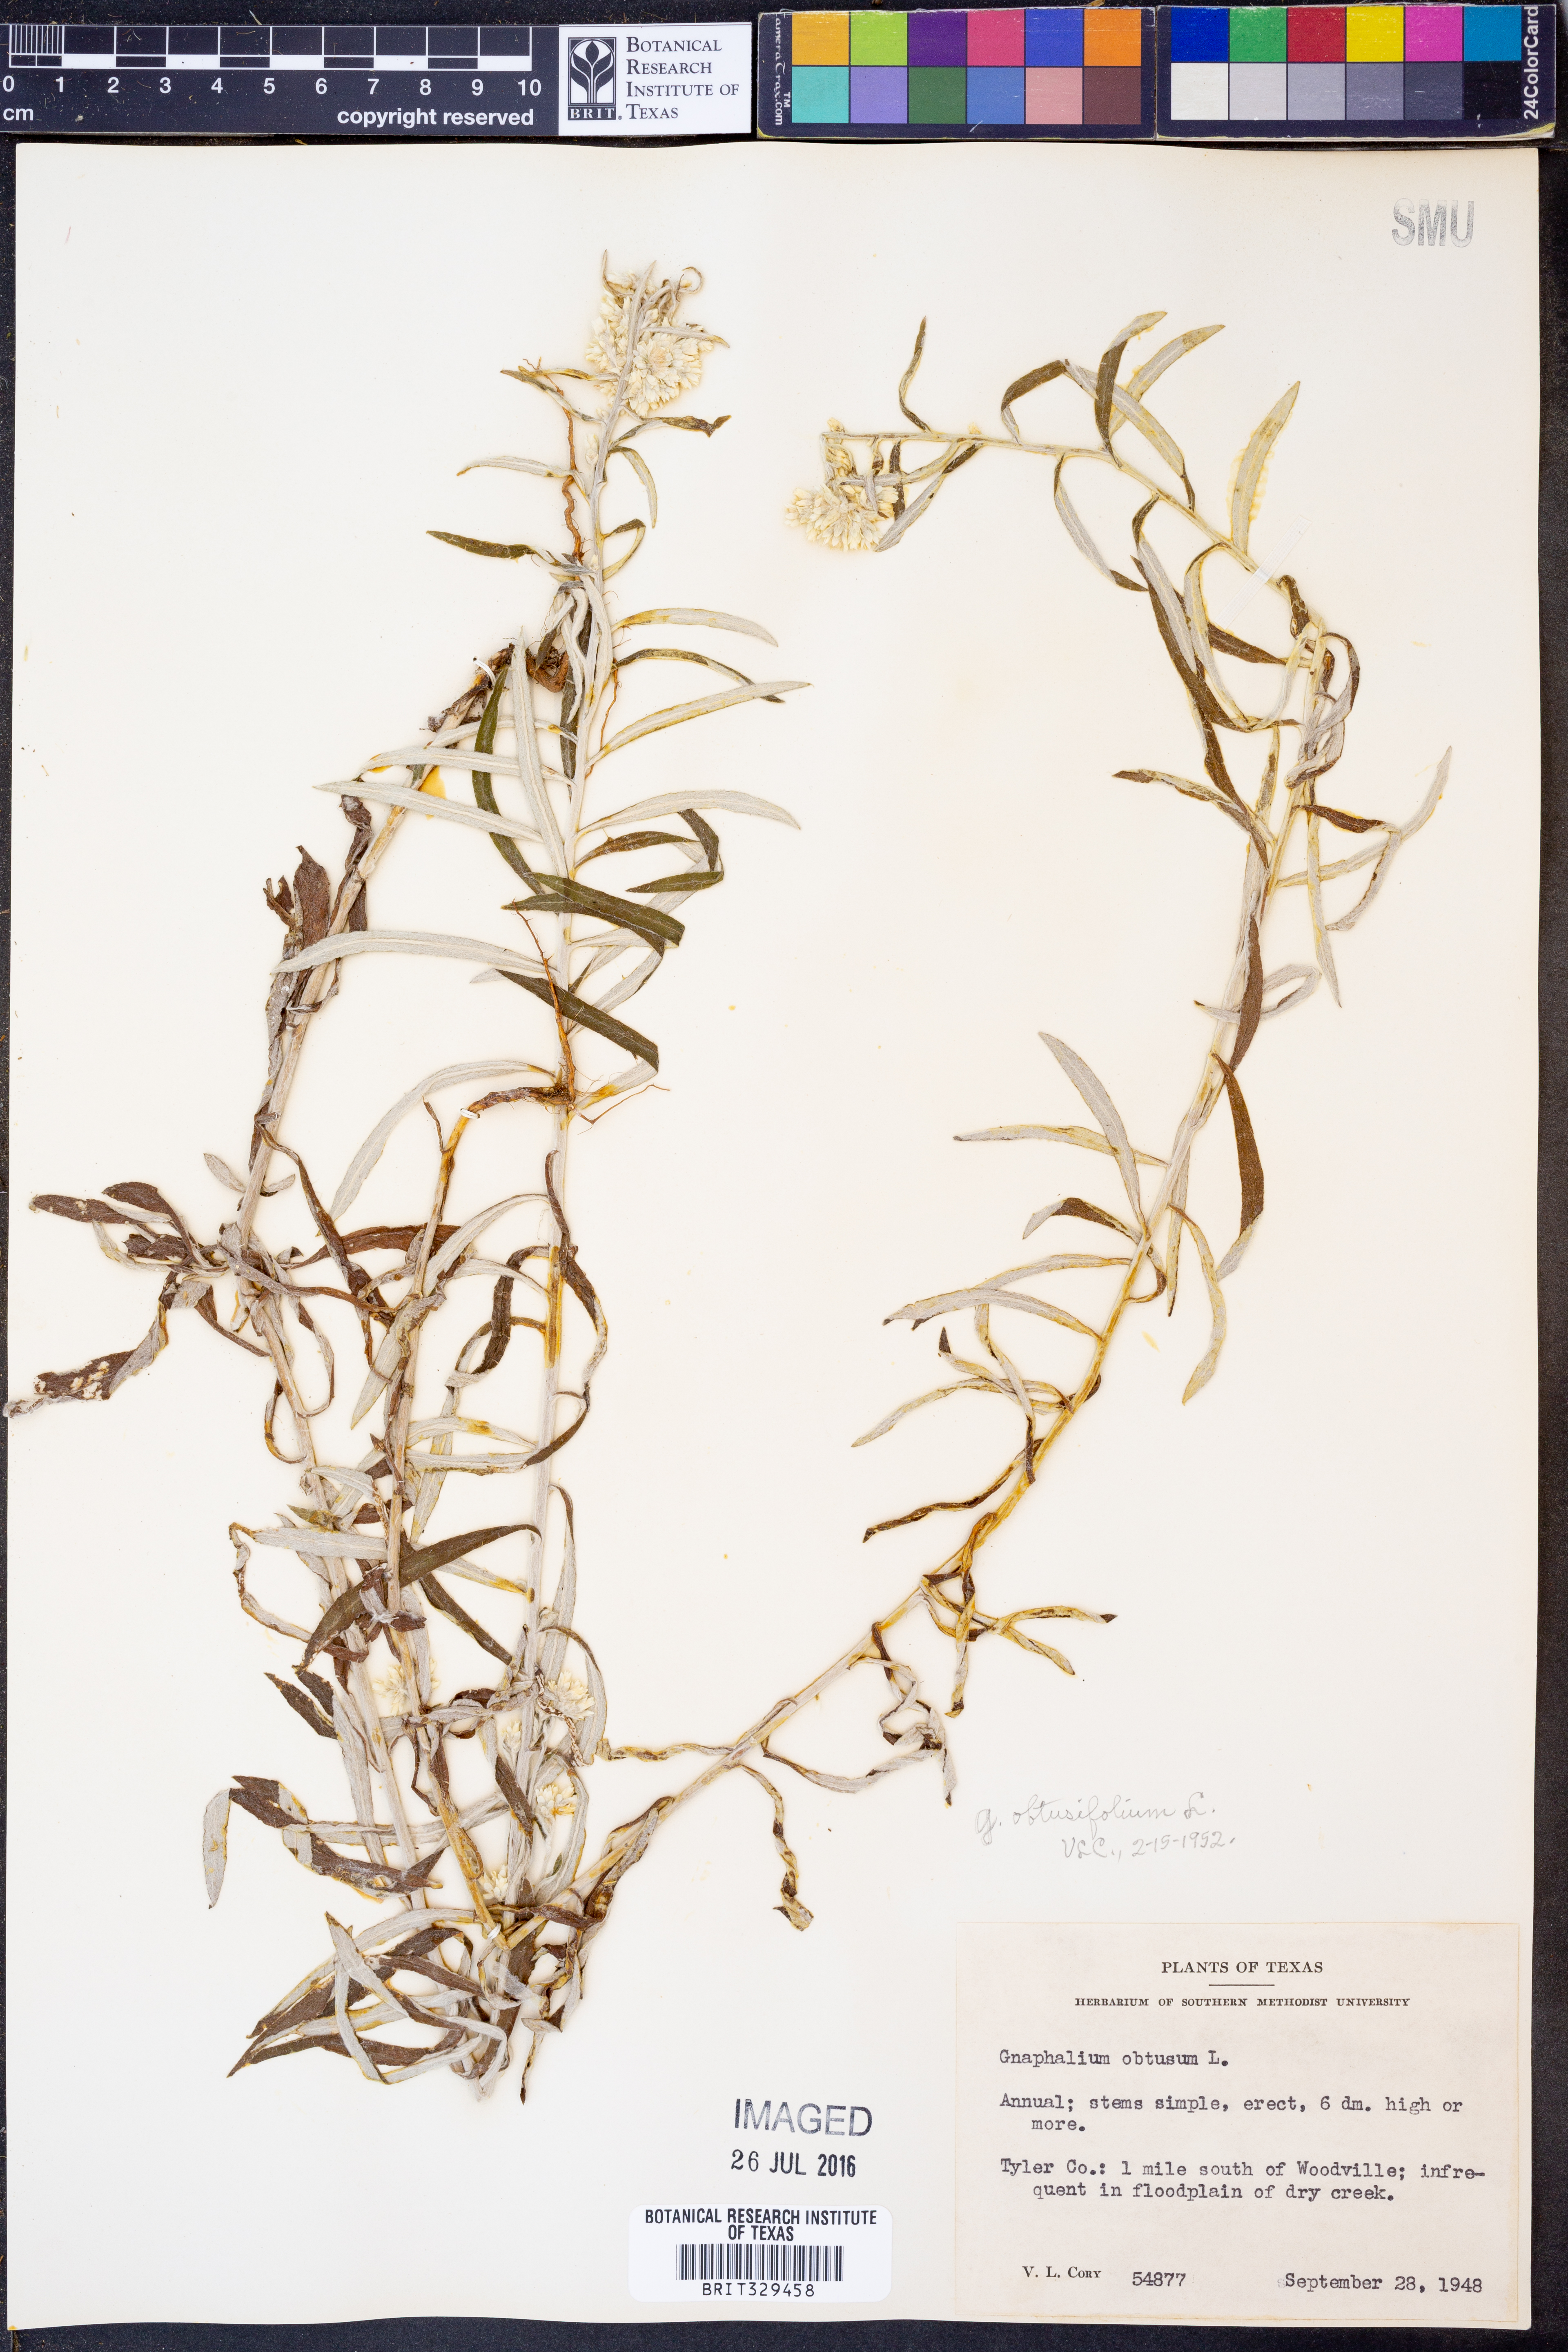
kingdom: Plantae
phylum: Tracheophyta
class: Magnoliopsida
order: Asterales
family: Asteraceae
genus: Pseudognaphalium
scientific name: Pseudognaphalium obtusifolium
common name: Eastern rabbit-tobacco
